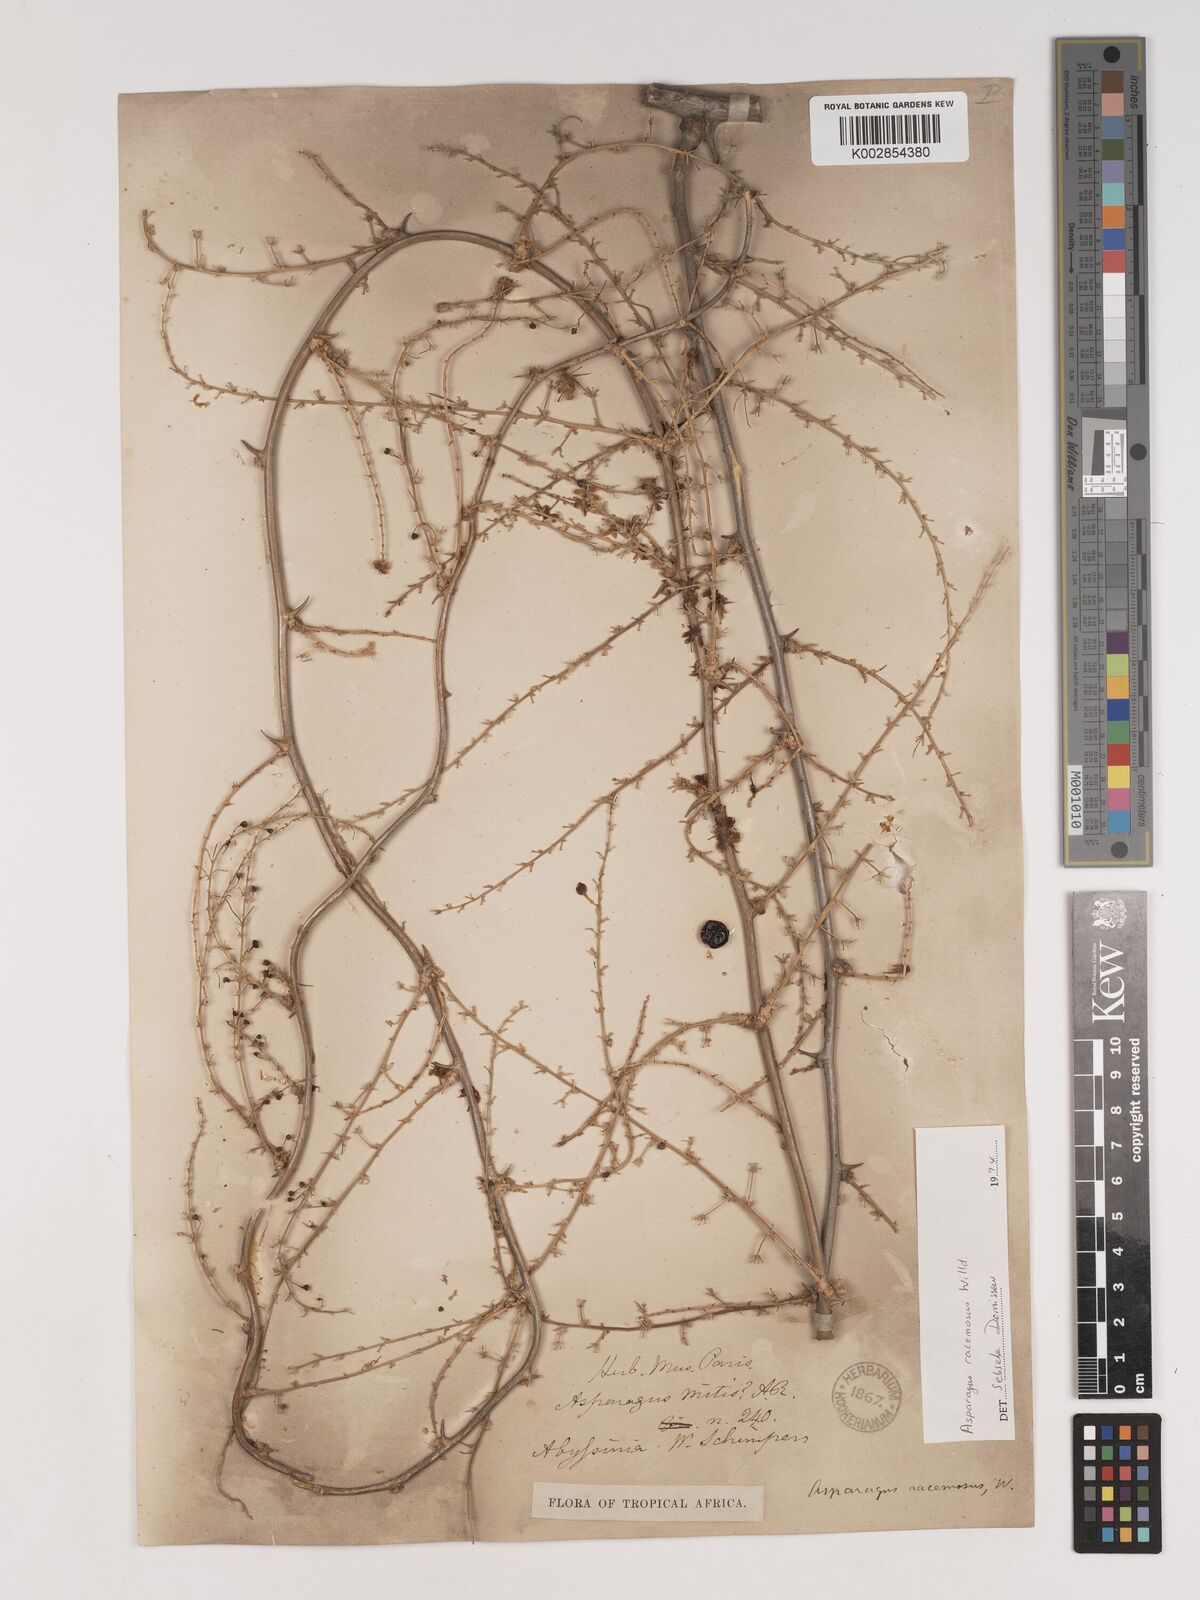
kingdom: Plantae
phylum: Tracheophyta
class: Liliopsida
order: Asparagales
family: Asparagaceae
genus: Asparagus
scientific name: Asparagus racemosus
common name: Asparagus-fern
